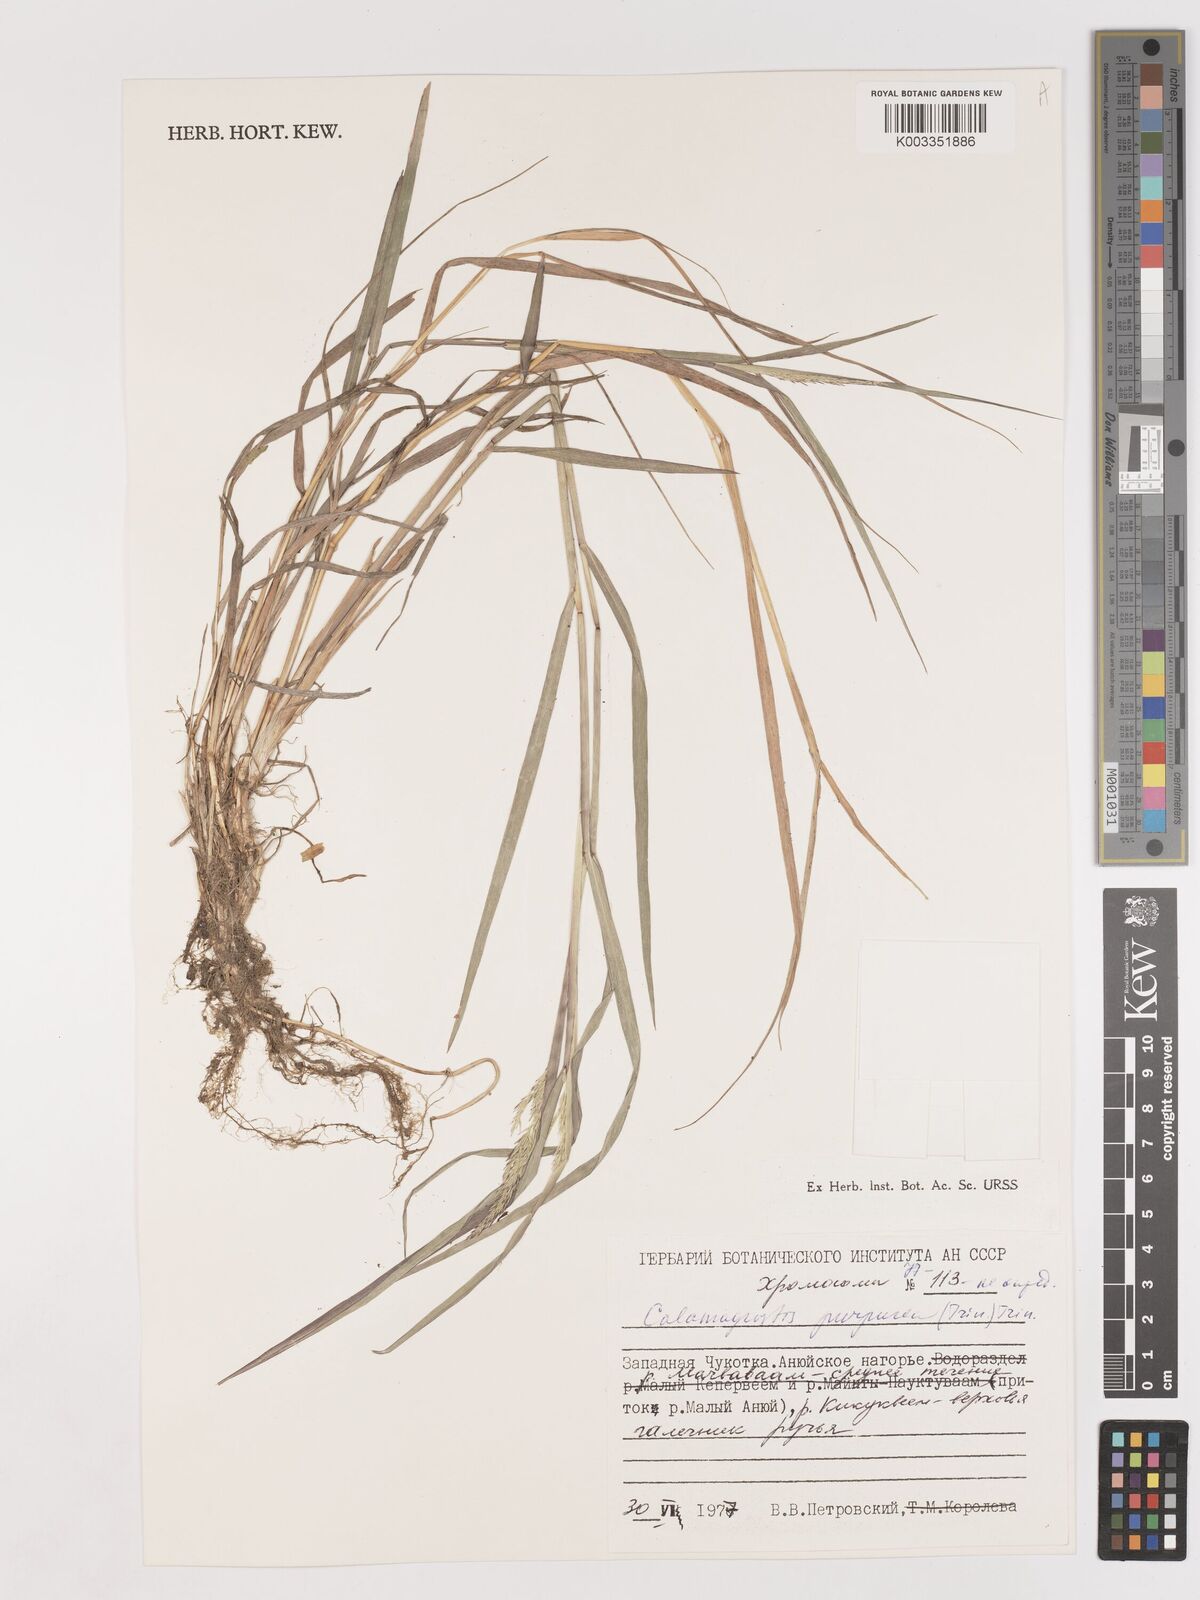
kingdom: Plantae
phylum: Tracheophyta
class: Liliopsida
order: Poales
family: Poaceae
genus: Calamagrostis
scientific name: Calamagrostis purpurea
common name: Scandinavian small-reed
